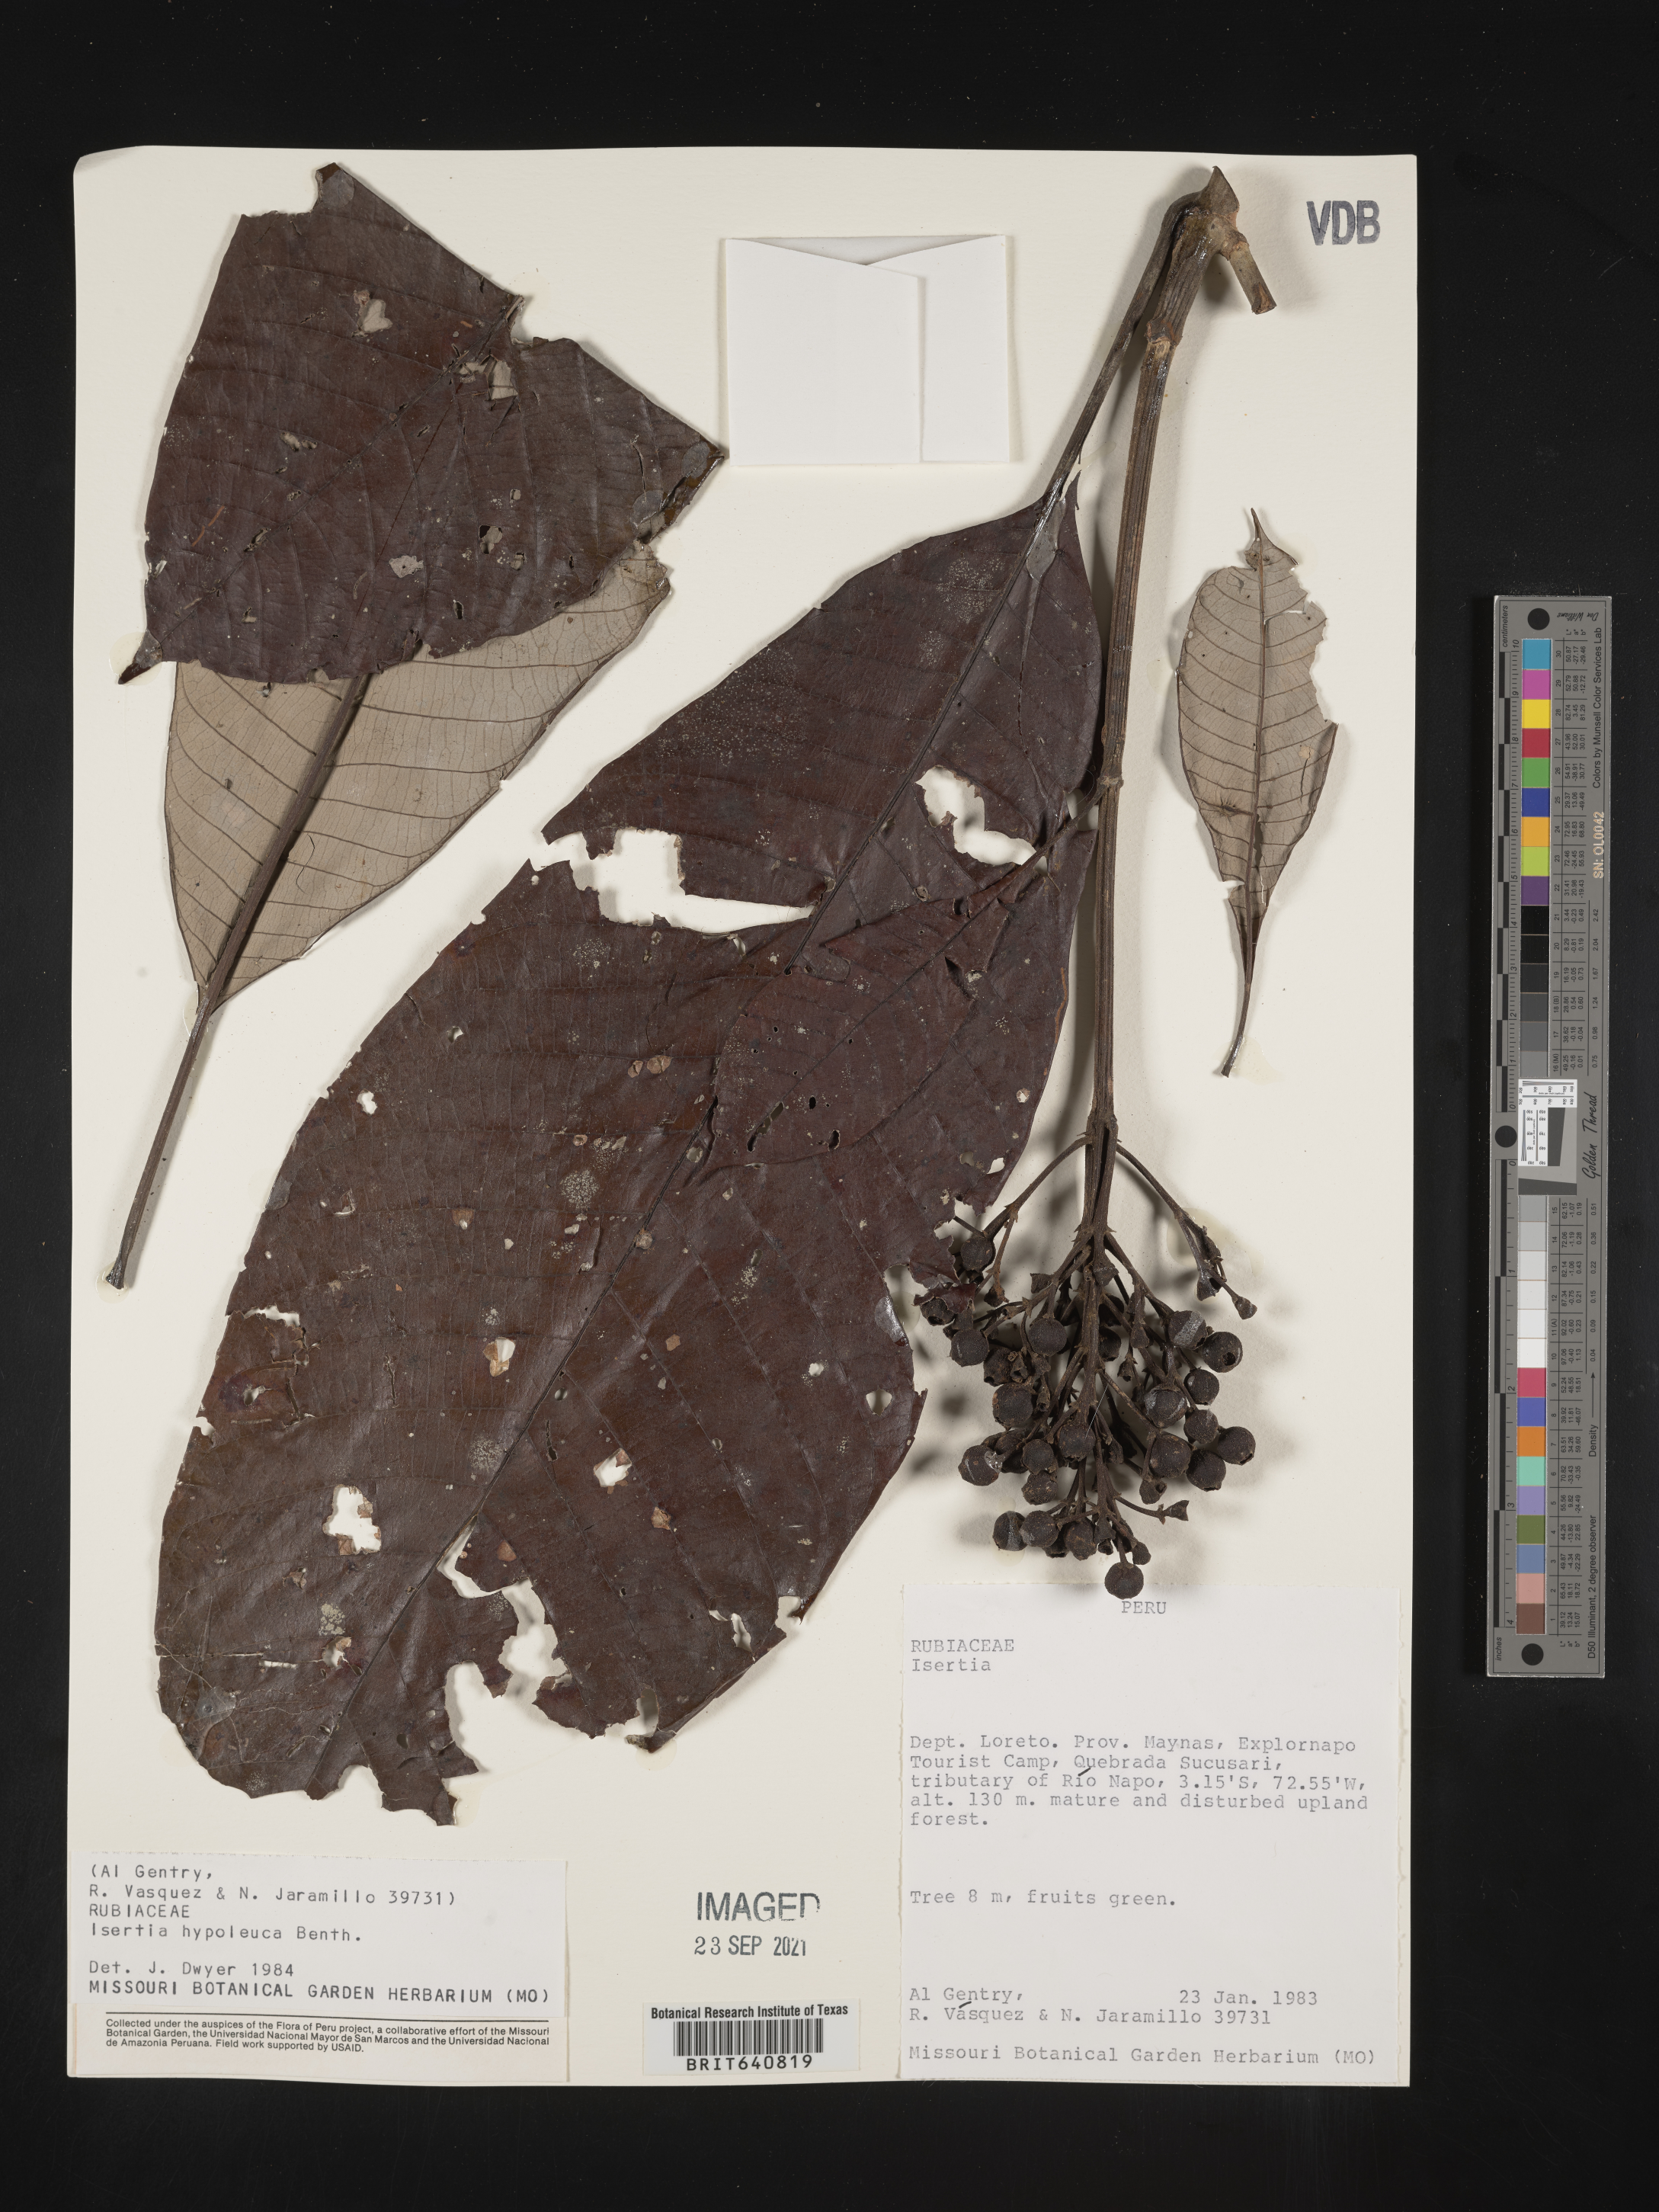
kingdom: Plantae
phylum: Tracheophyta
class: Magnoliopsida
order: Gentianales
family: Rubiaceae
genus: Isertia
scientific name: Isertia
